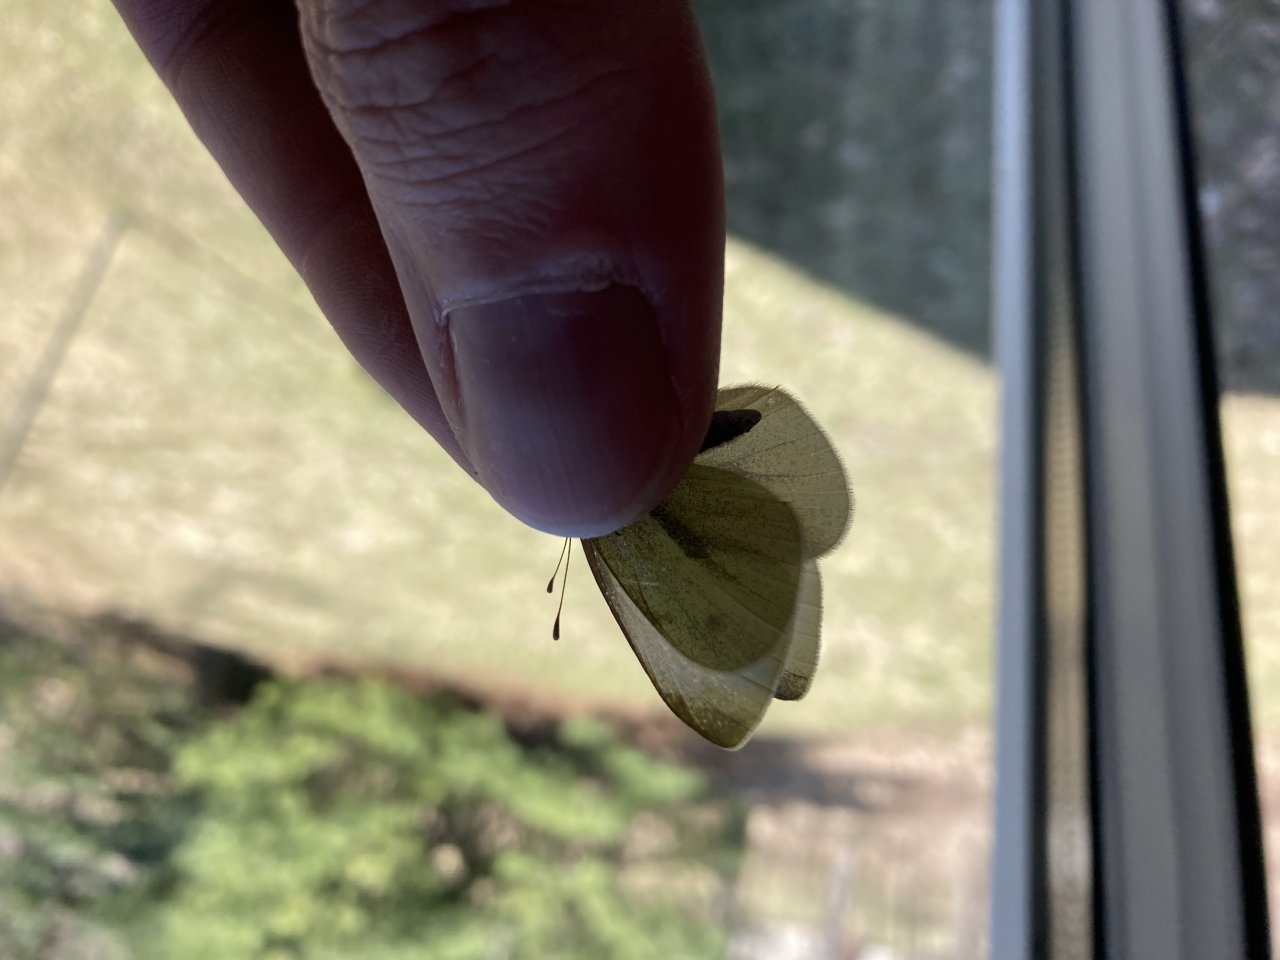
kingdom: Animalia
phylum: Arthropoda
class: Insecta
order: Lepidoptera
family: Pieridae
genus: Pieris
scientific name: Pieris rapae
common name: Cabbage White
